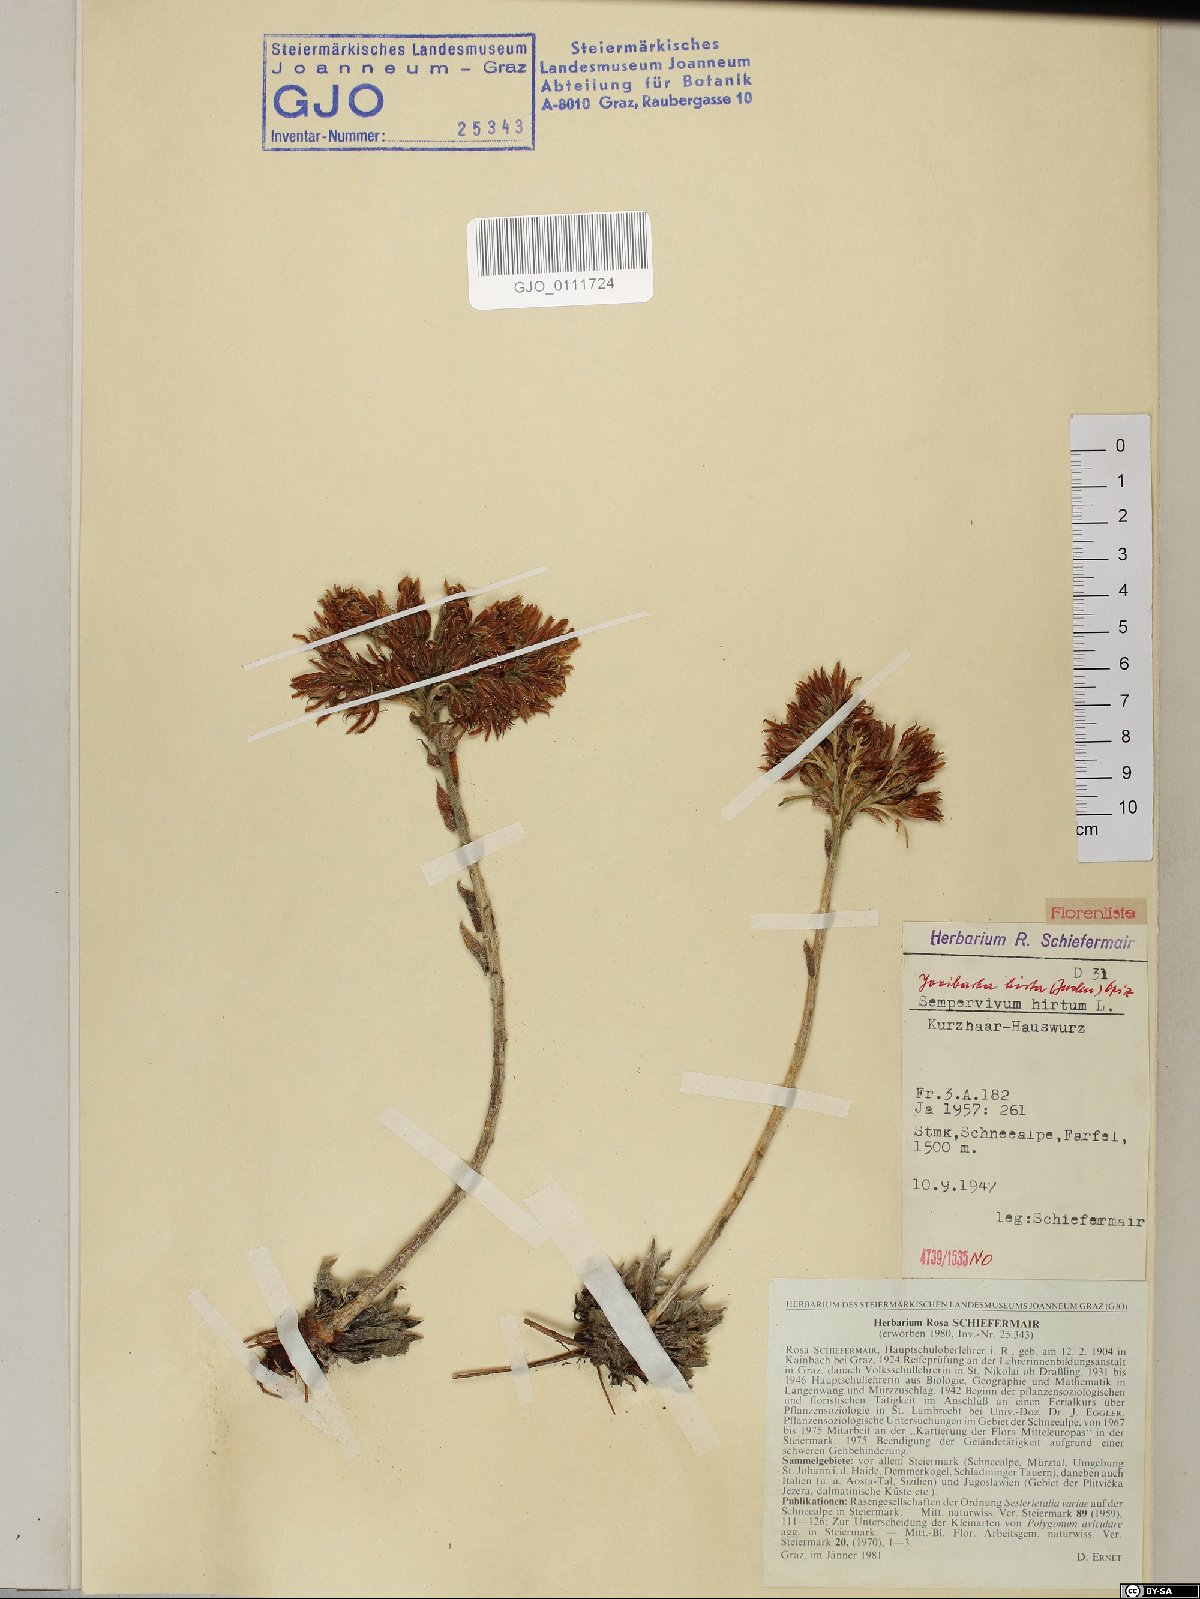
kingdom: Plantae
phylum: Tracheophyta
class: Magnoliopsida
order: Saxifragales
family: Crassulaceae
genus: Sempervivum
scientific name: Sempervivum globiferum
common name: Rolling hen-and-chicks
